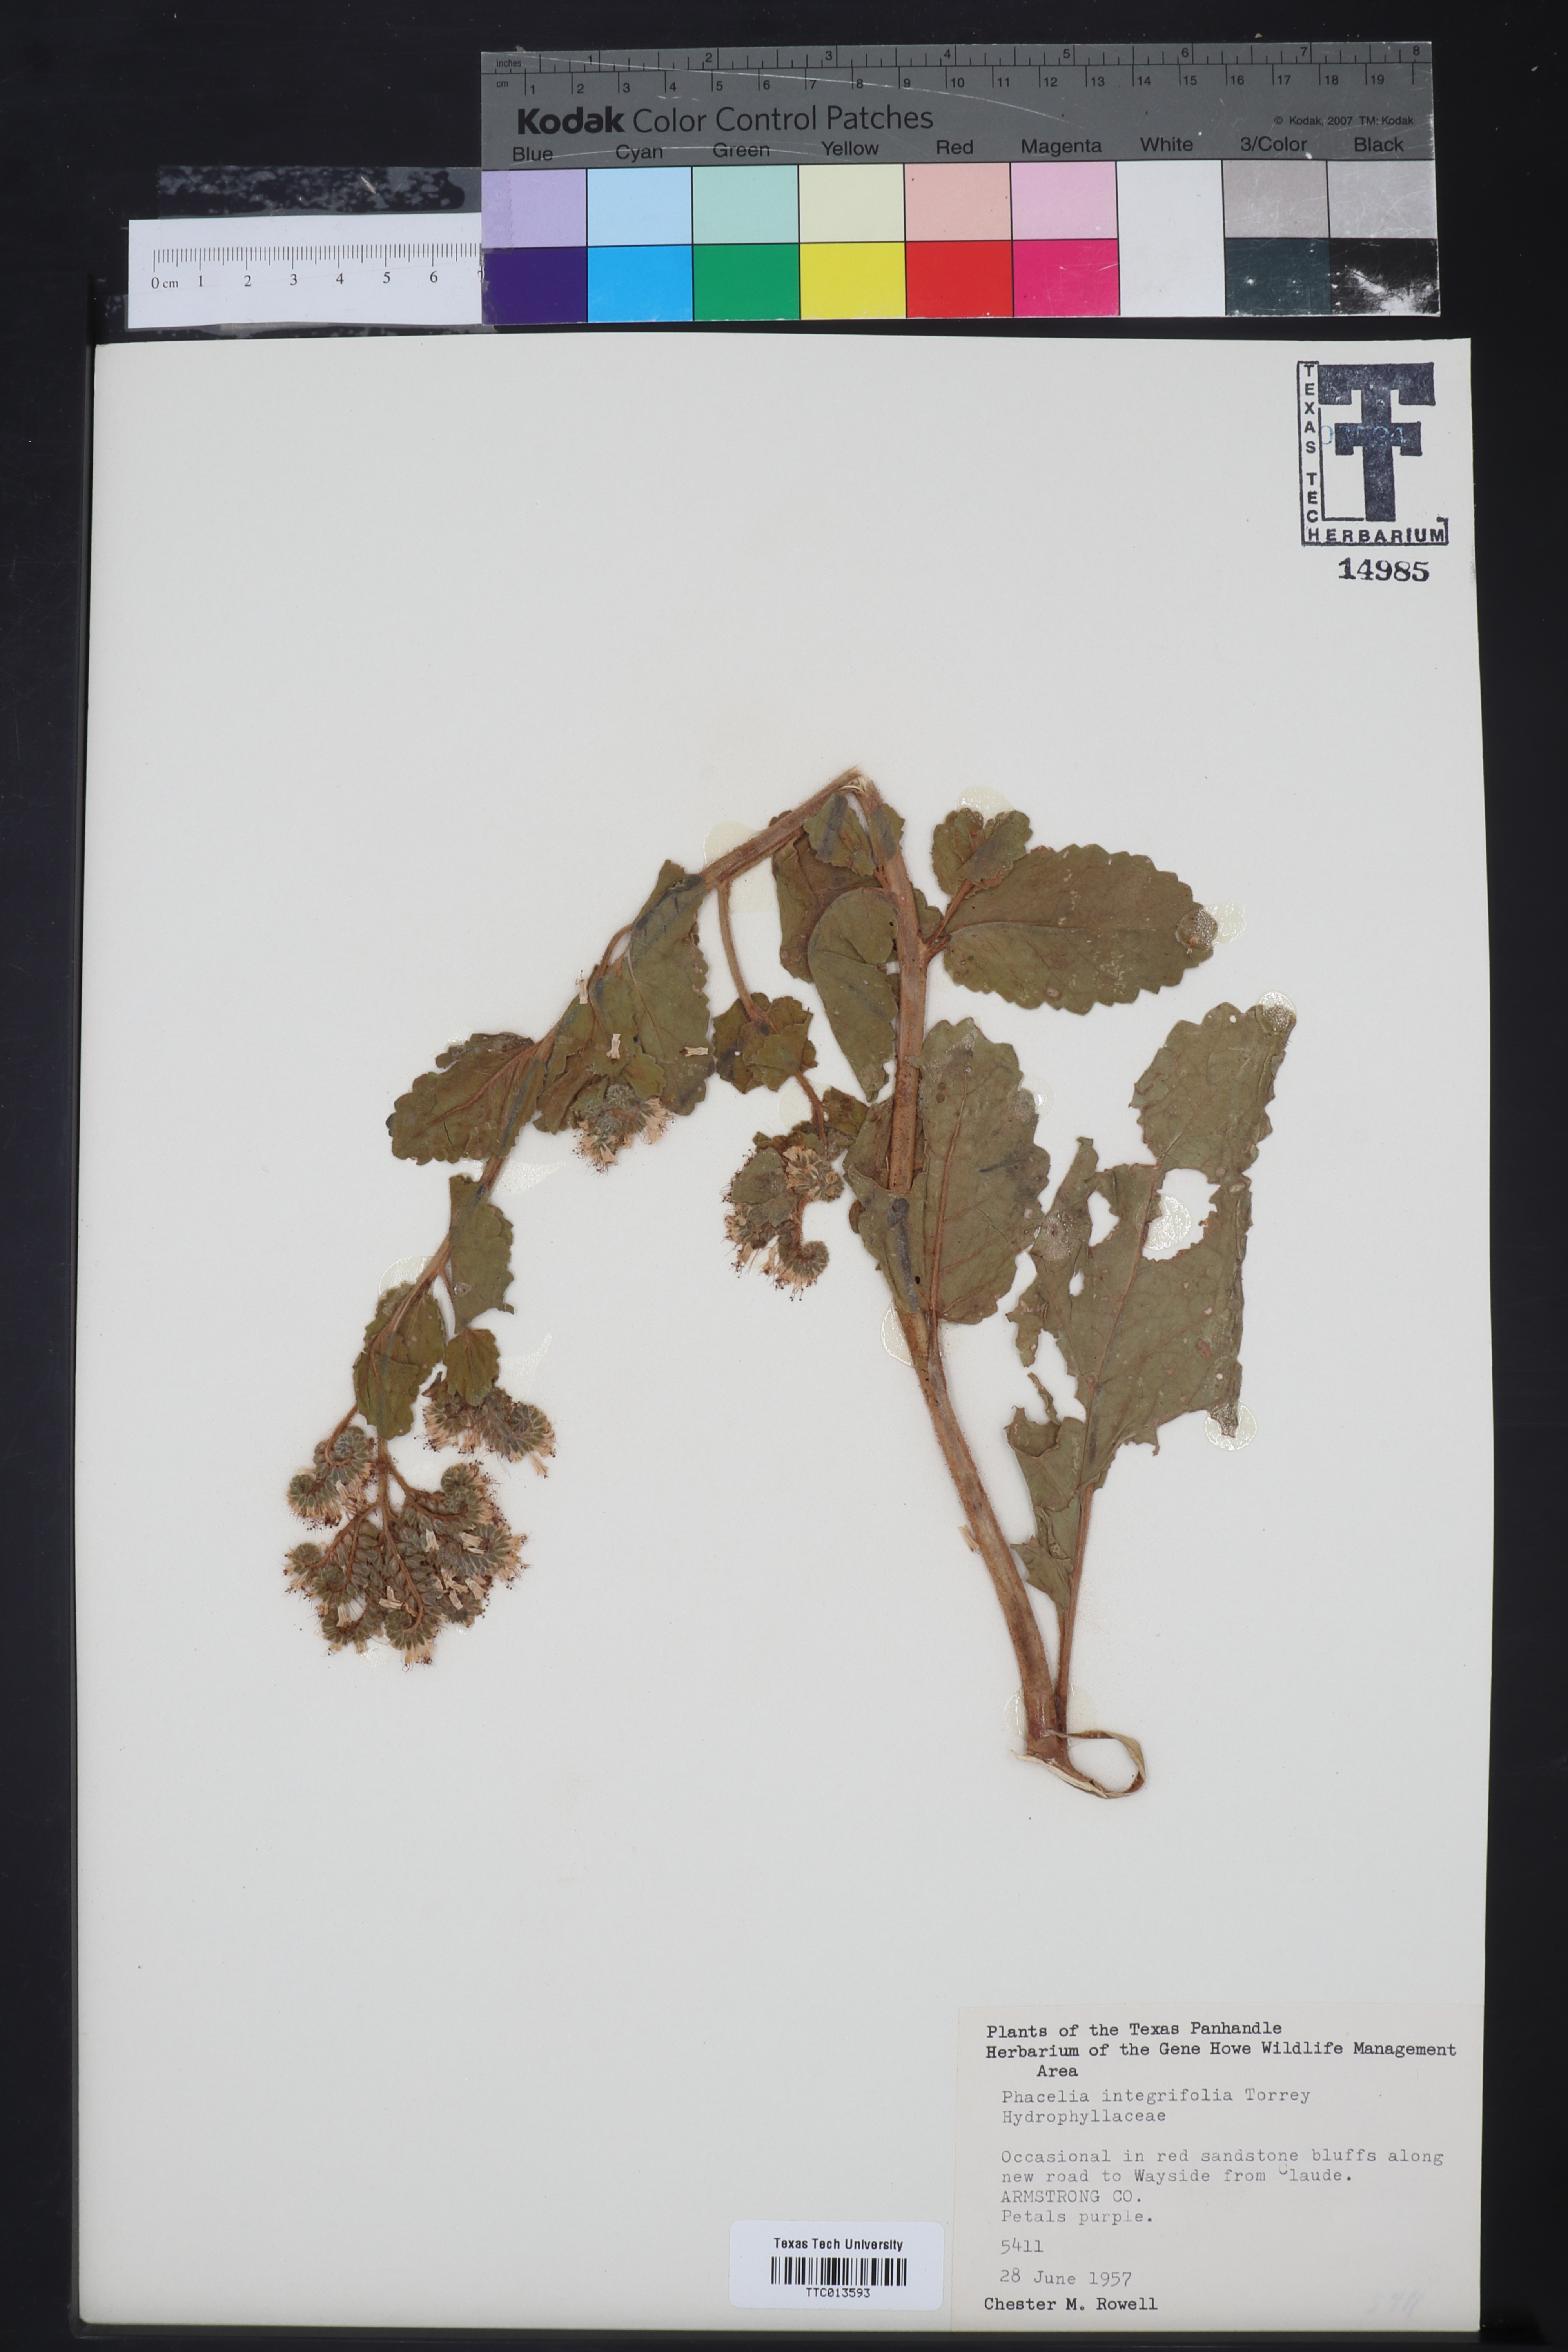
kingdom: Plantae
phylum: Tracheophyta
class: Magnoliopsida
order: Boraginales
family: Hydrophyllaceae
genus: Phacelia
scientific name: Phacelia integrifolia
